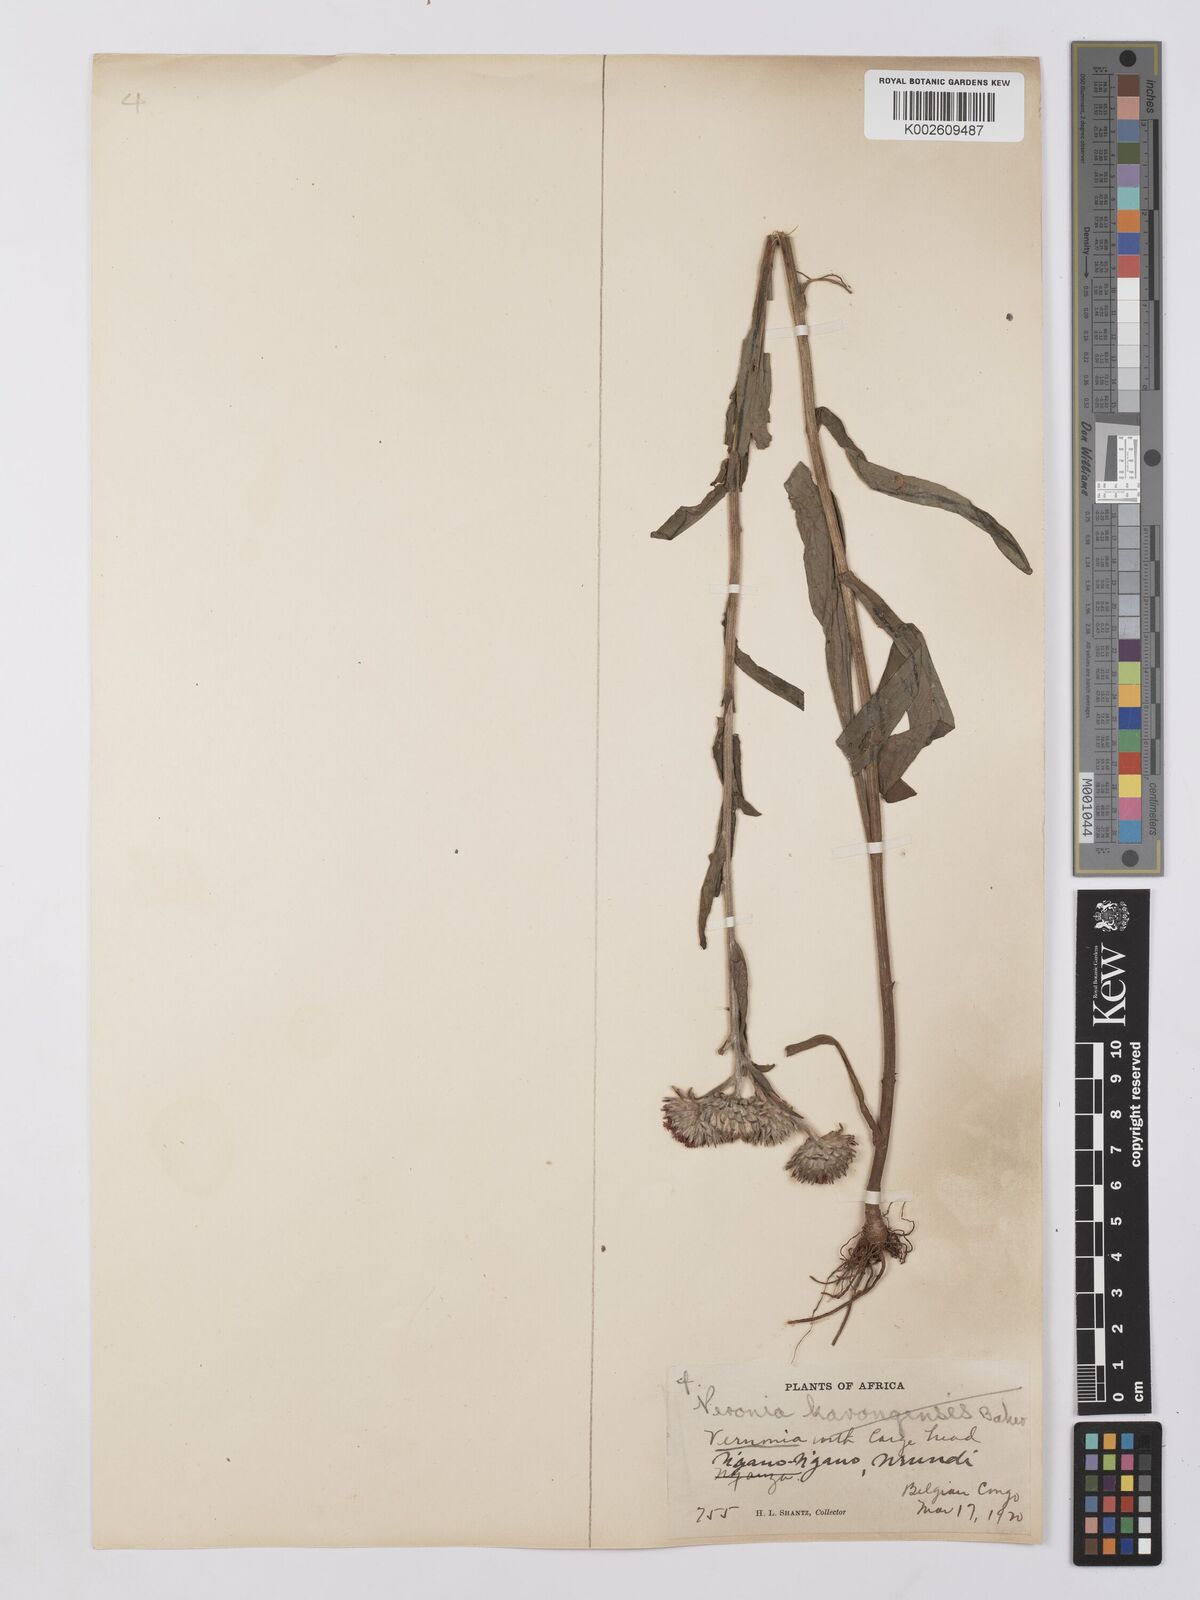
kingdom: Plantae
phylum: Tracheophyta
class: Magnoliopsida
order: Asterales
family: Asteraceae
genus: Vernonia
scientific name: Vernonia
